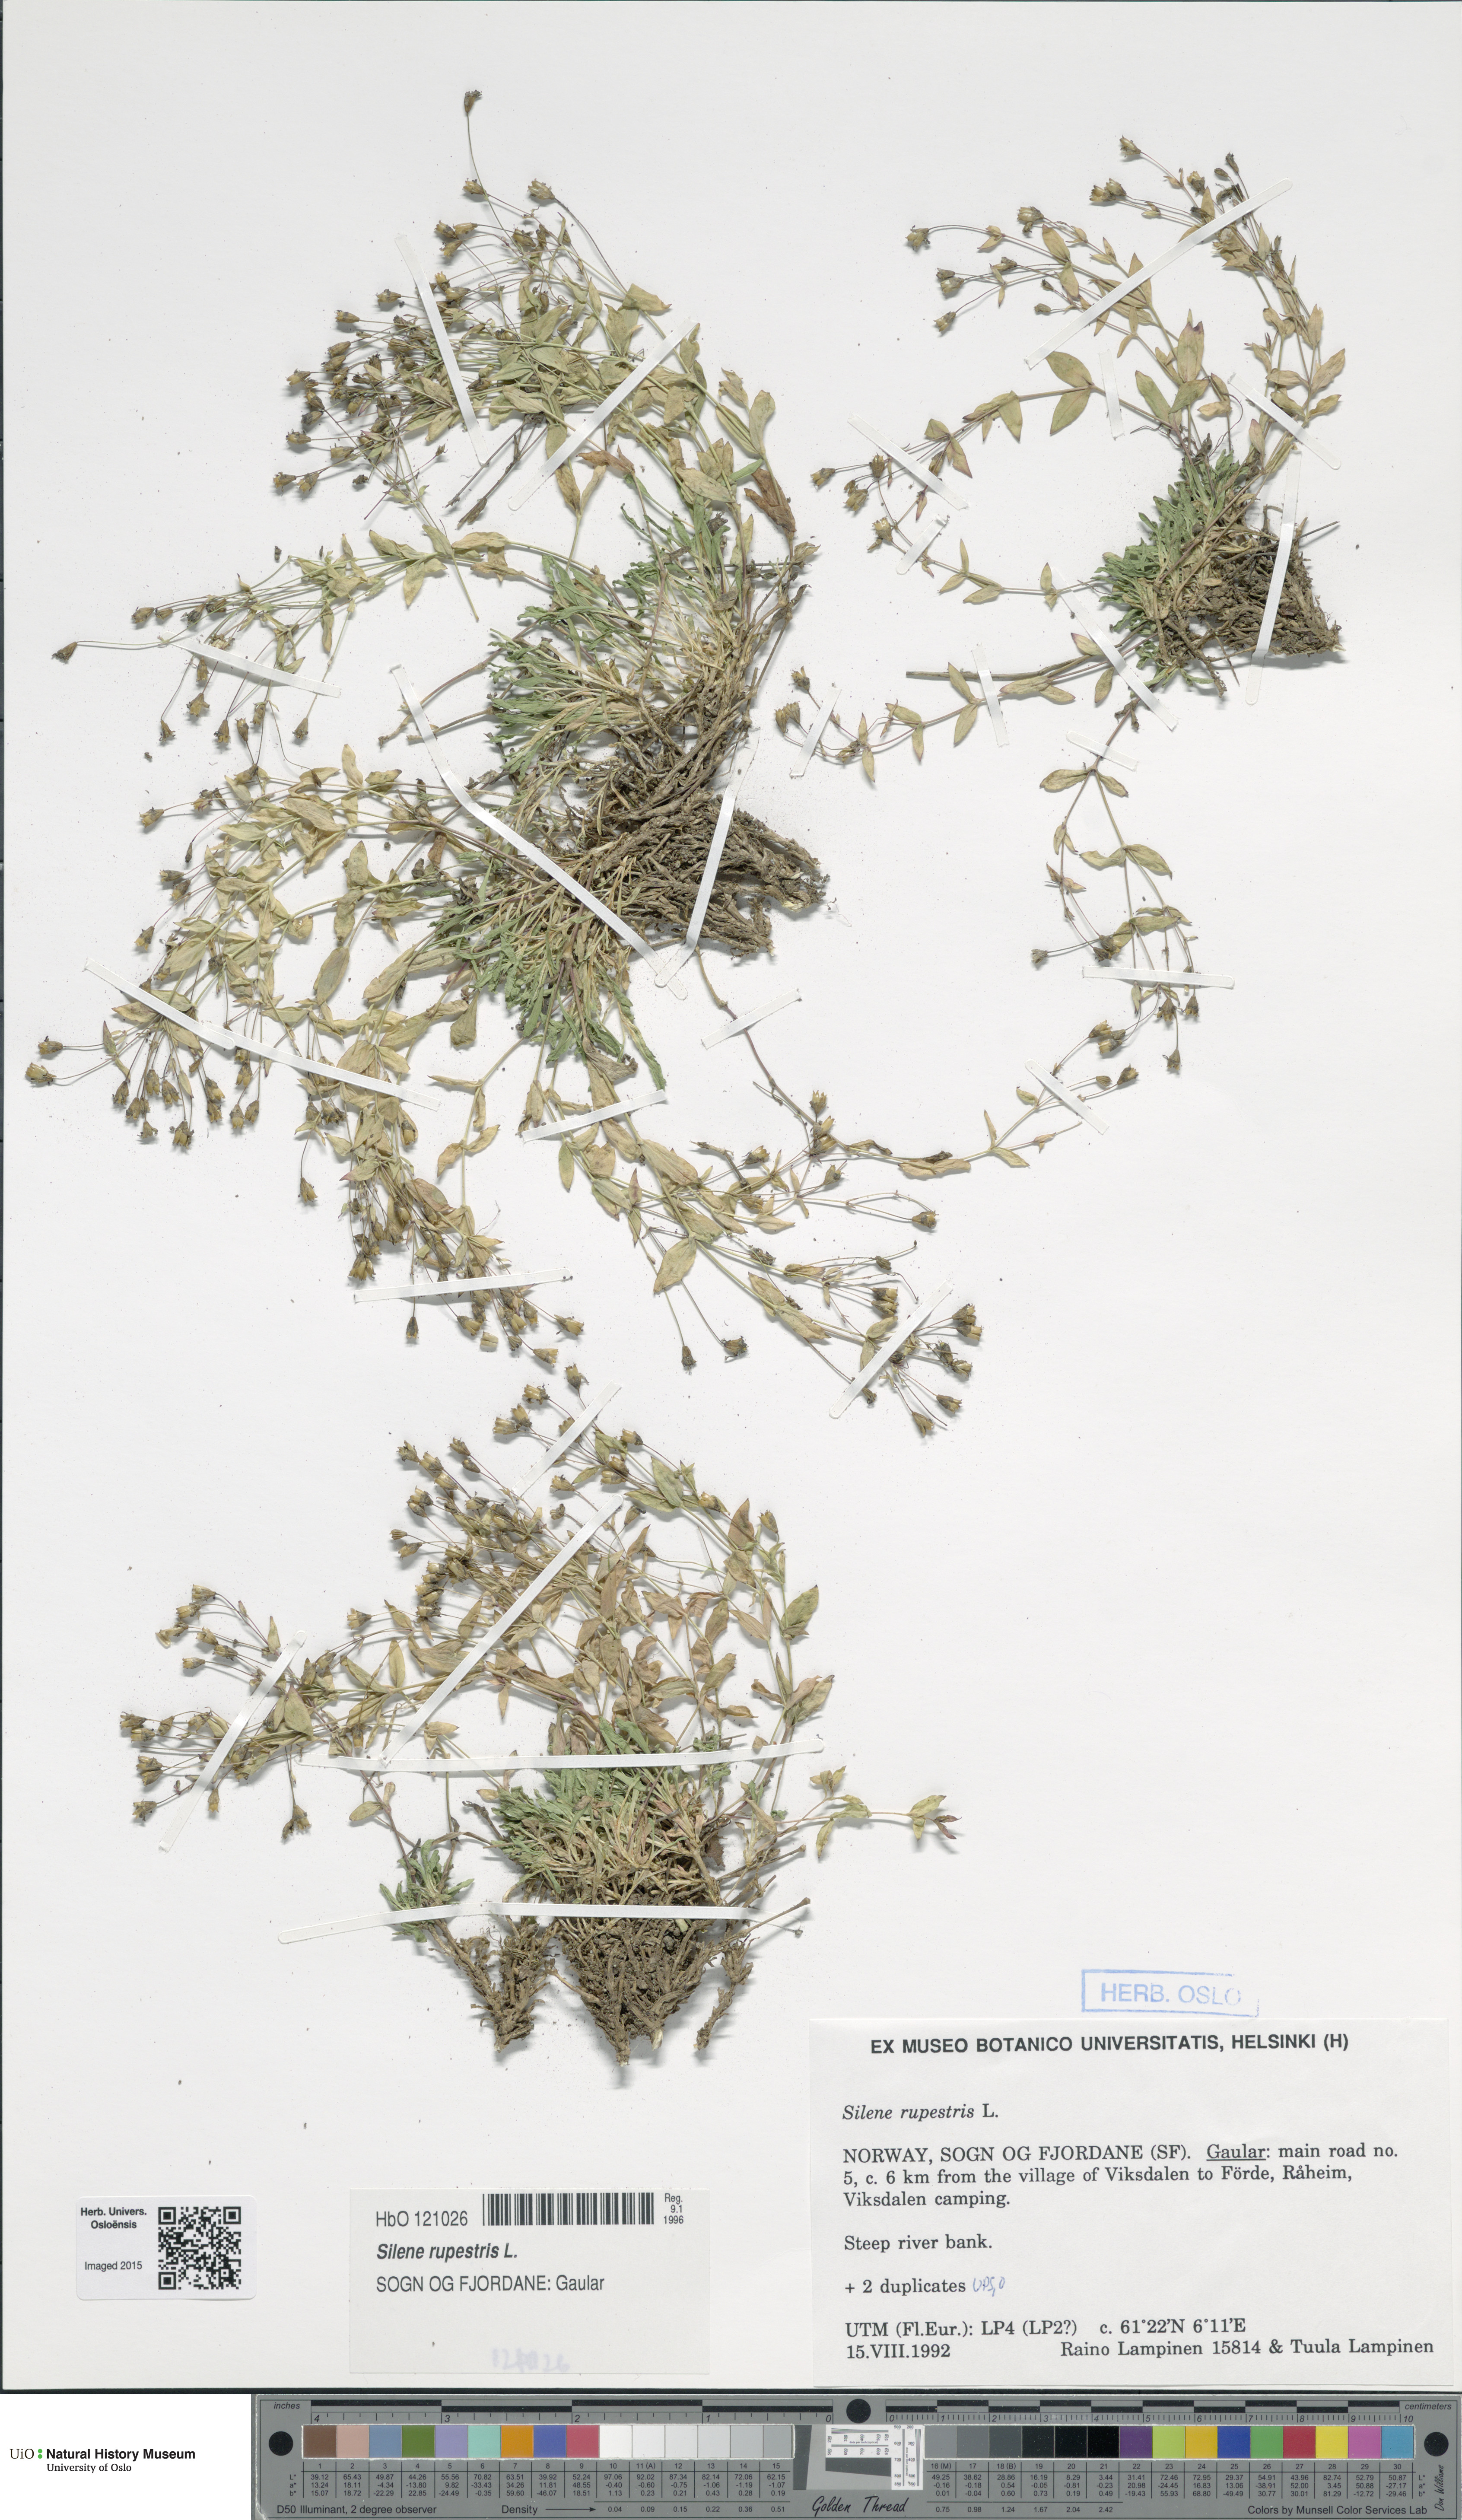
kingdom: Plantae
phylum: Tracheophyta
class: Magnoliopsida
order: Caryophyllales
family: Caryophyllaceae
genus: Atocion
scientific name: Atocion rupestre
